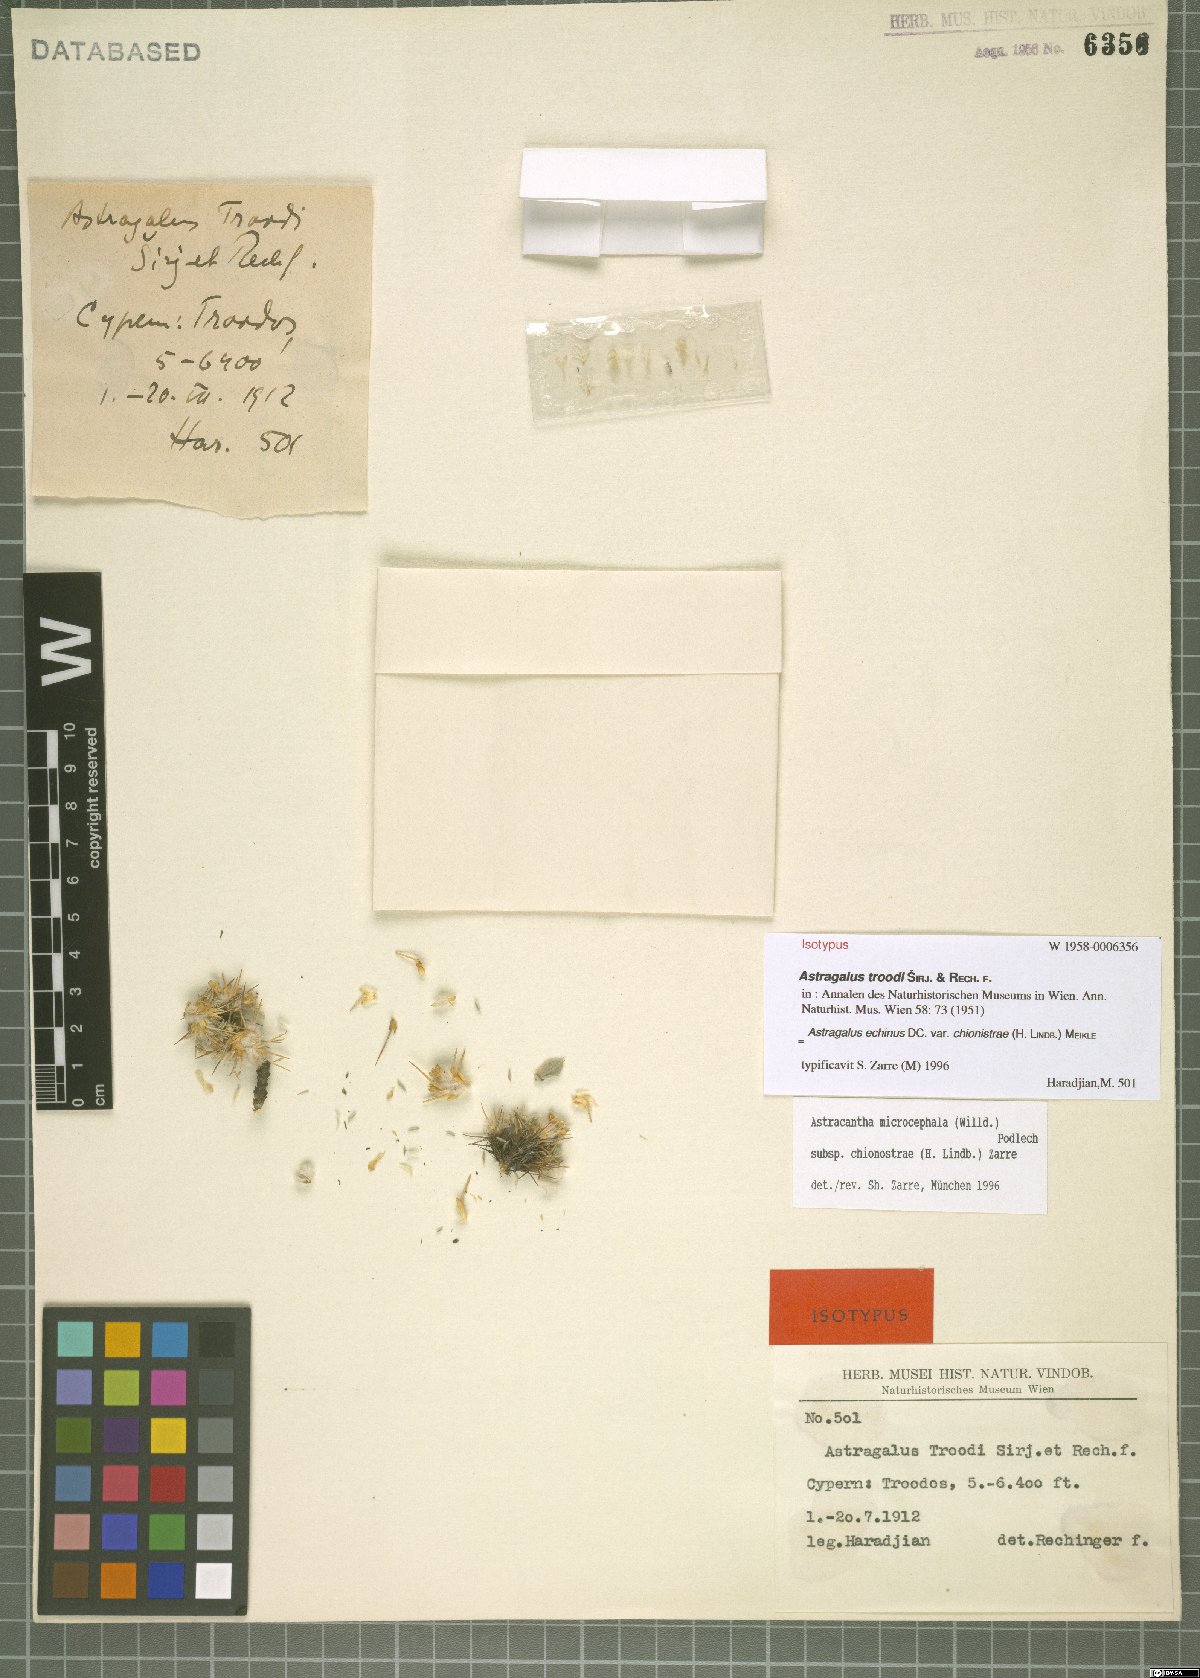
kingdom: Plantae
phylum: Tracheophyta
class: Magnoliopsida
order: Fabales
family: Fabaceae
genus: Astragalus
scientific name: Astragalus echinus
